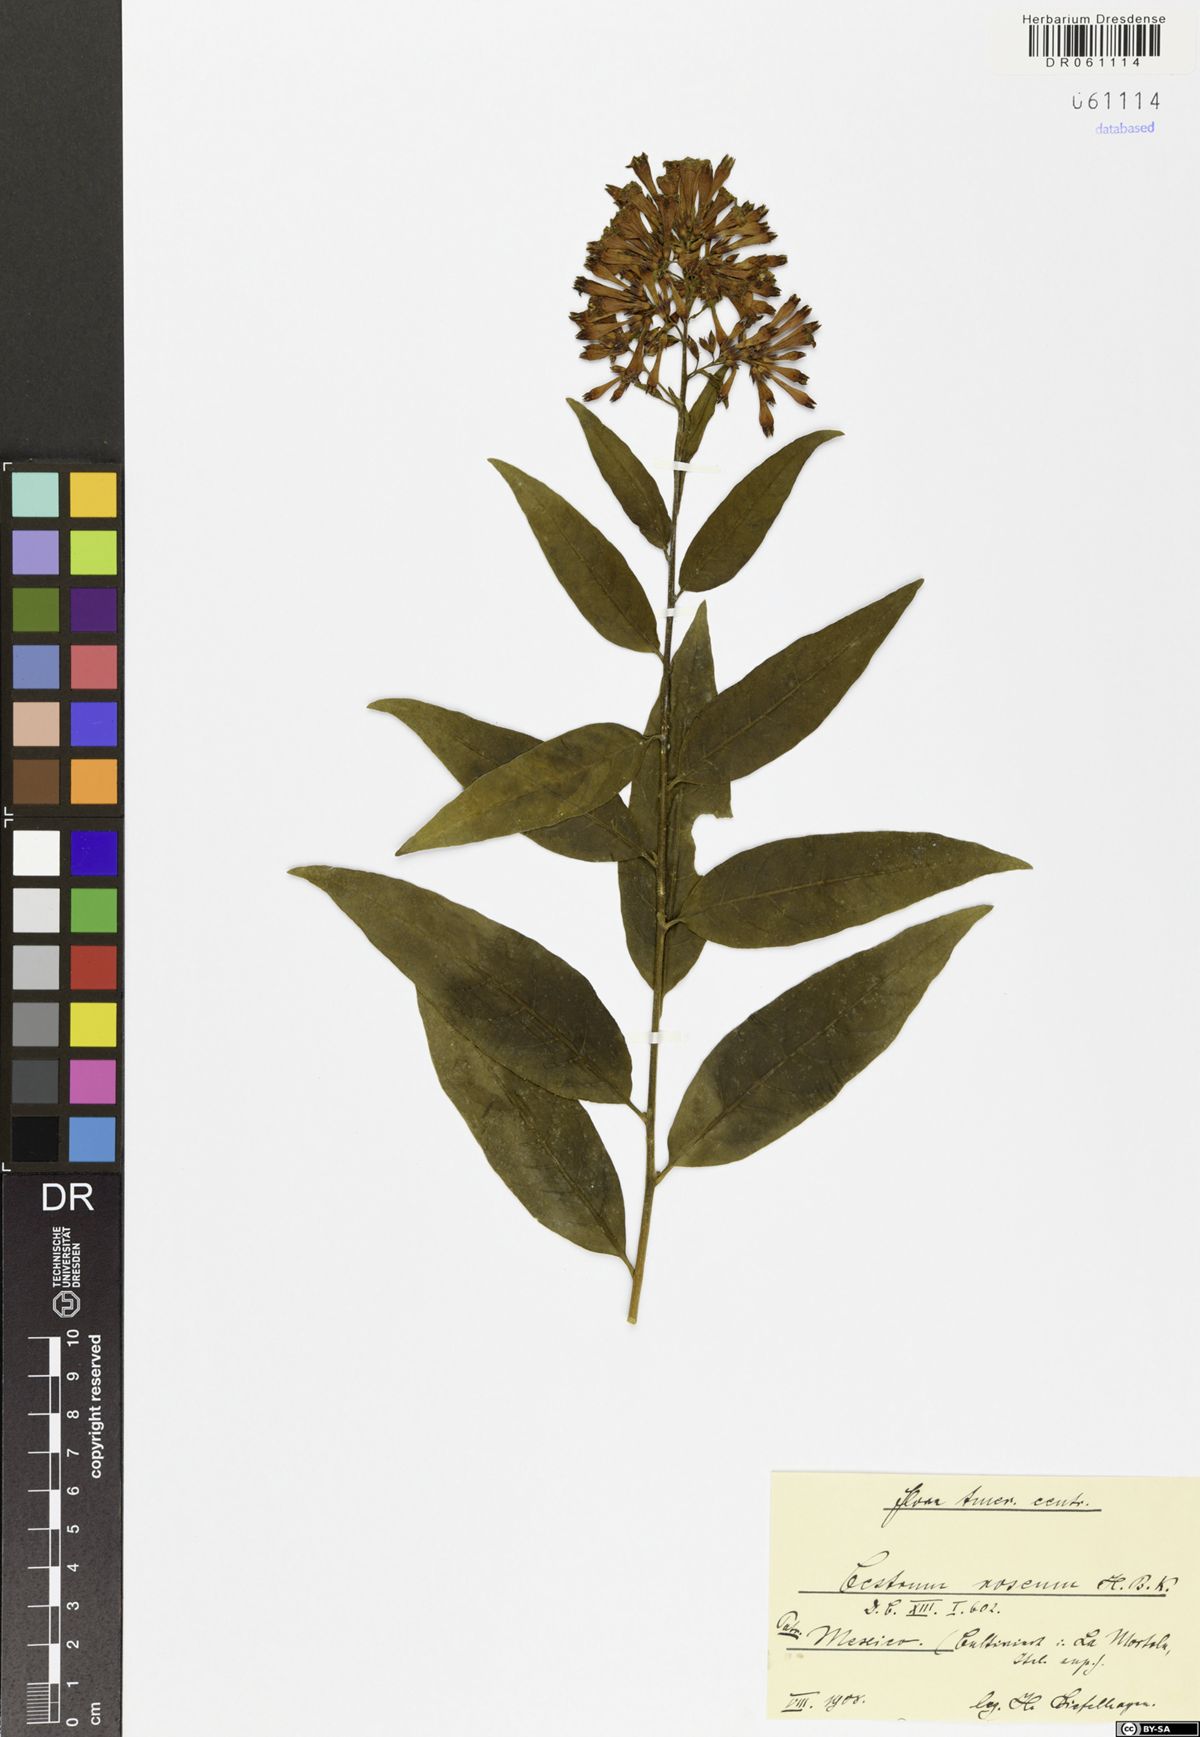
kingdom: Plantae
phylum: Tracheophyta
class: Magnoliopsida
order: Solanales
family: Solanaceae
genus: Cestrum
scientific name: Cestrum roseum
